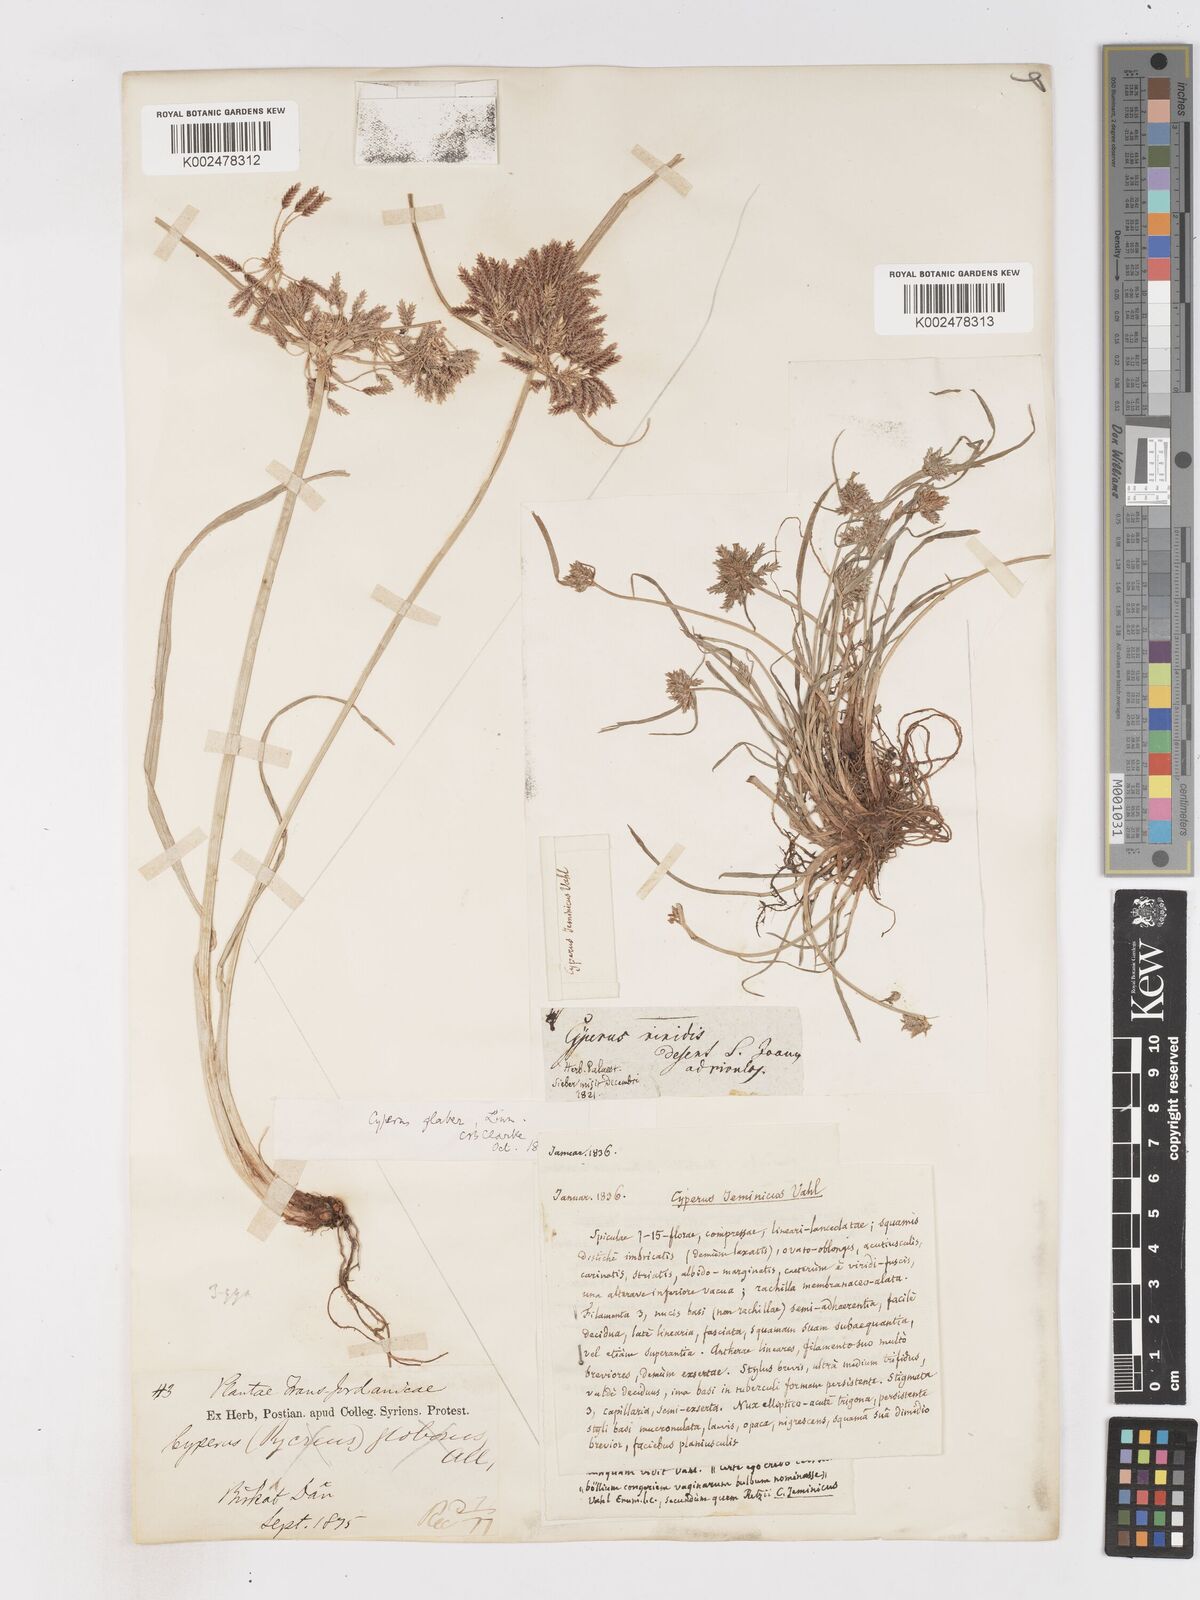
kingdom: Plantae
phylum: Tracheophyta
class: Liliopsida
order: Poales
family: Cyperaceae
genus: Cyperus
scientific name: Cyperus glaber
